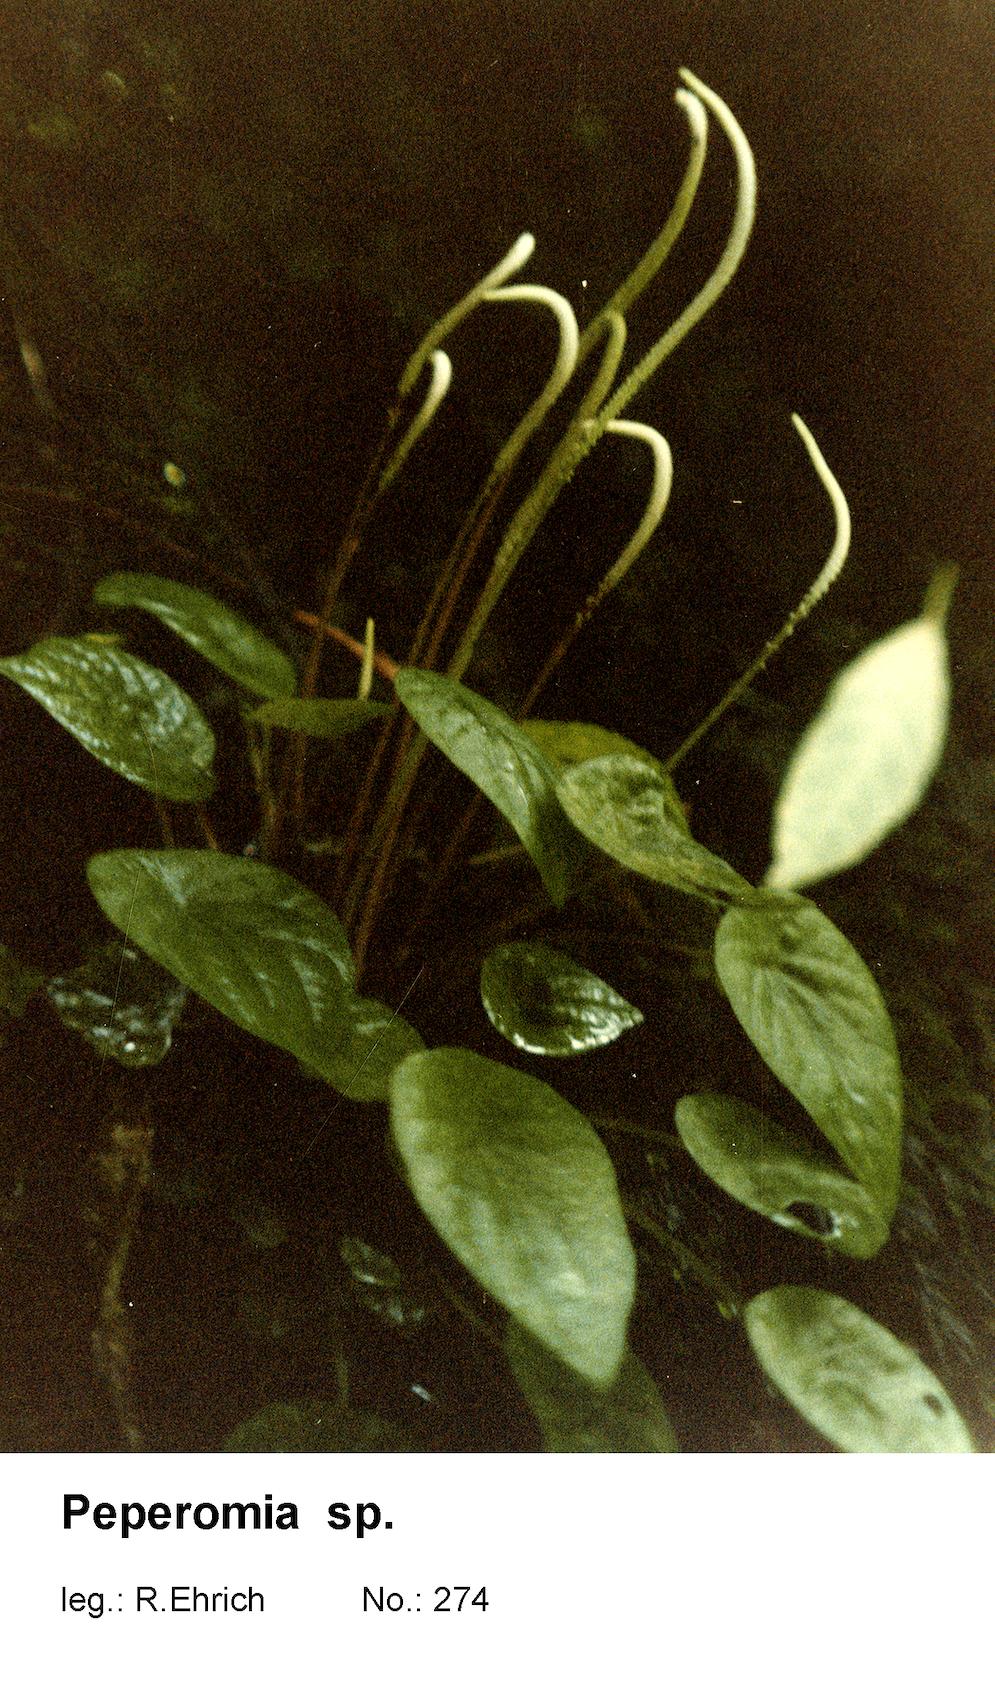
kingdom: Plantae
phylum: Tracheophyta
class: Magnoliopsida
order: Piperales
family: Piperaceae
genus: Peperomia
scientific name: Peperomia
